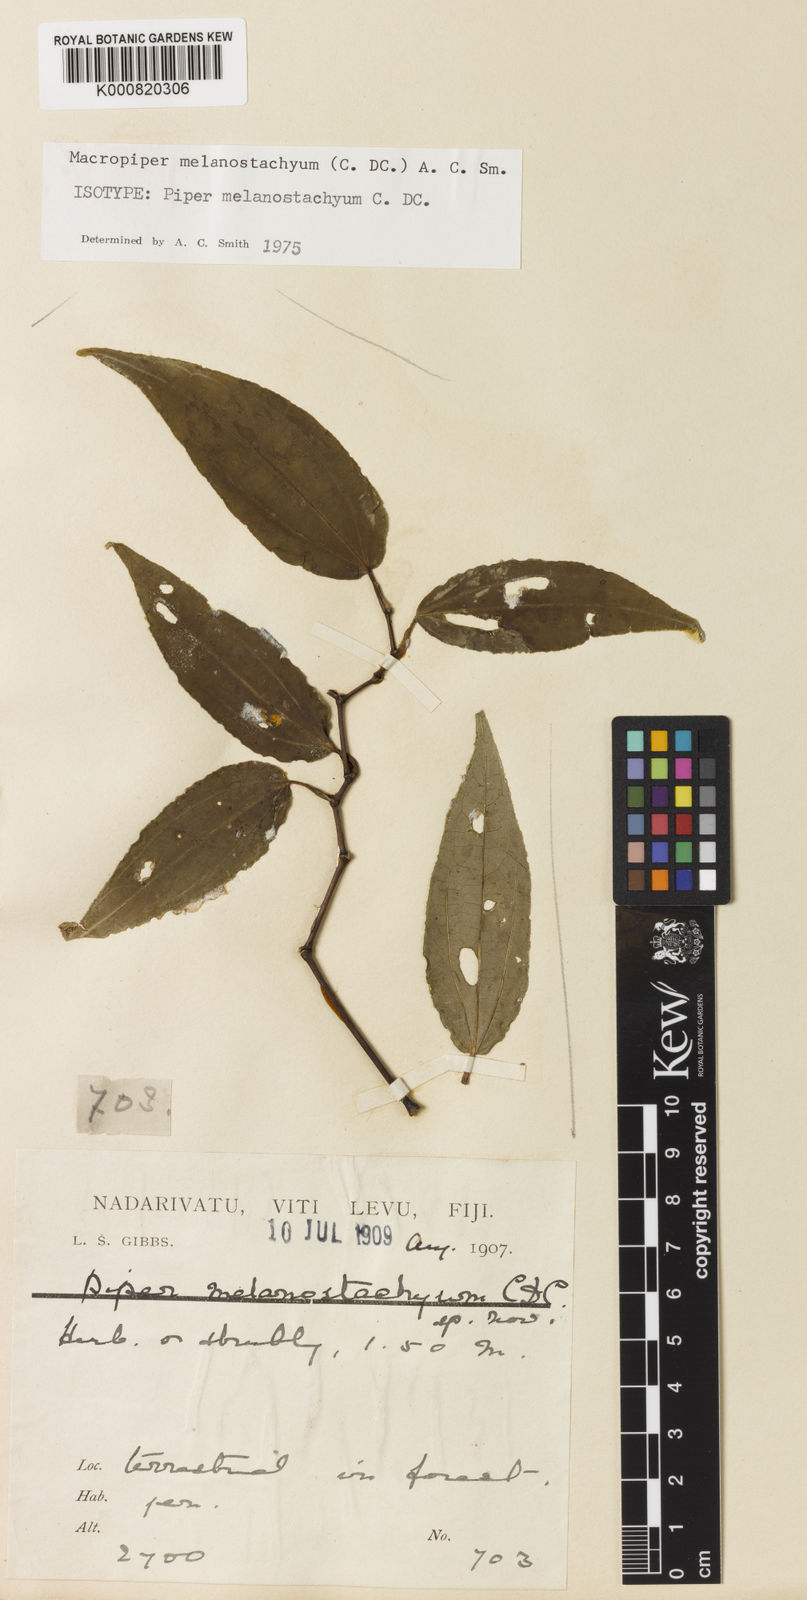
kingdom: Plantae
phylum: Tracheophyta
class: Magnoliopsida
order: Piperales
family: Piperaceae
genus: Macropiper
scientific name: Macropiper melanostachyum
